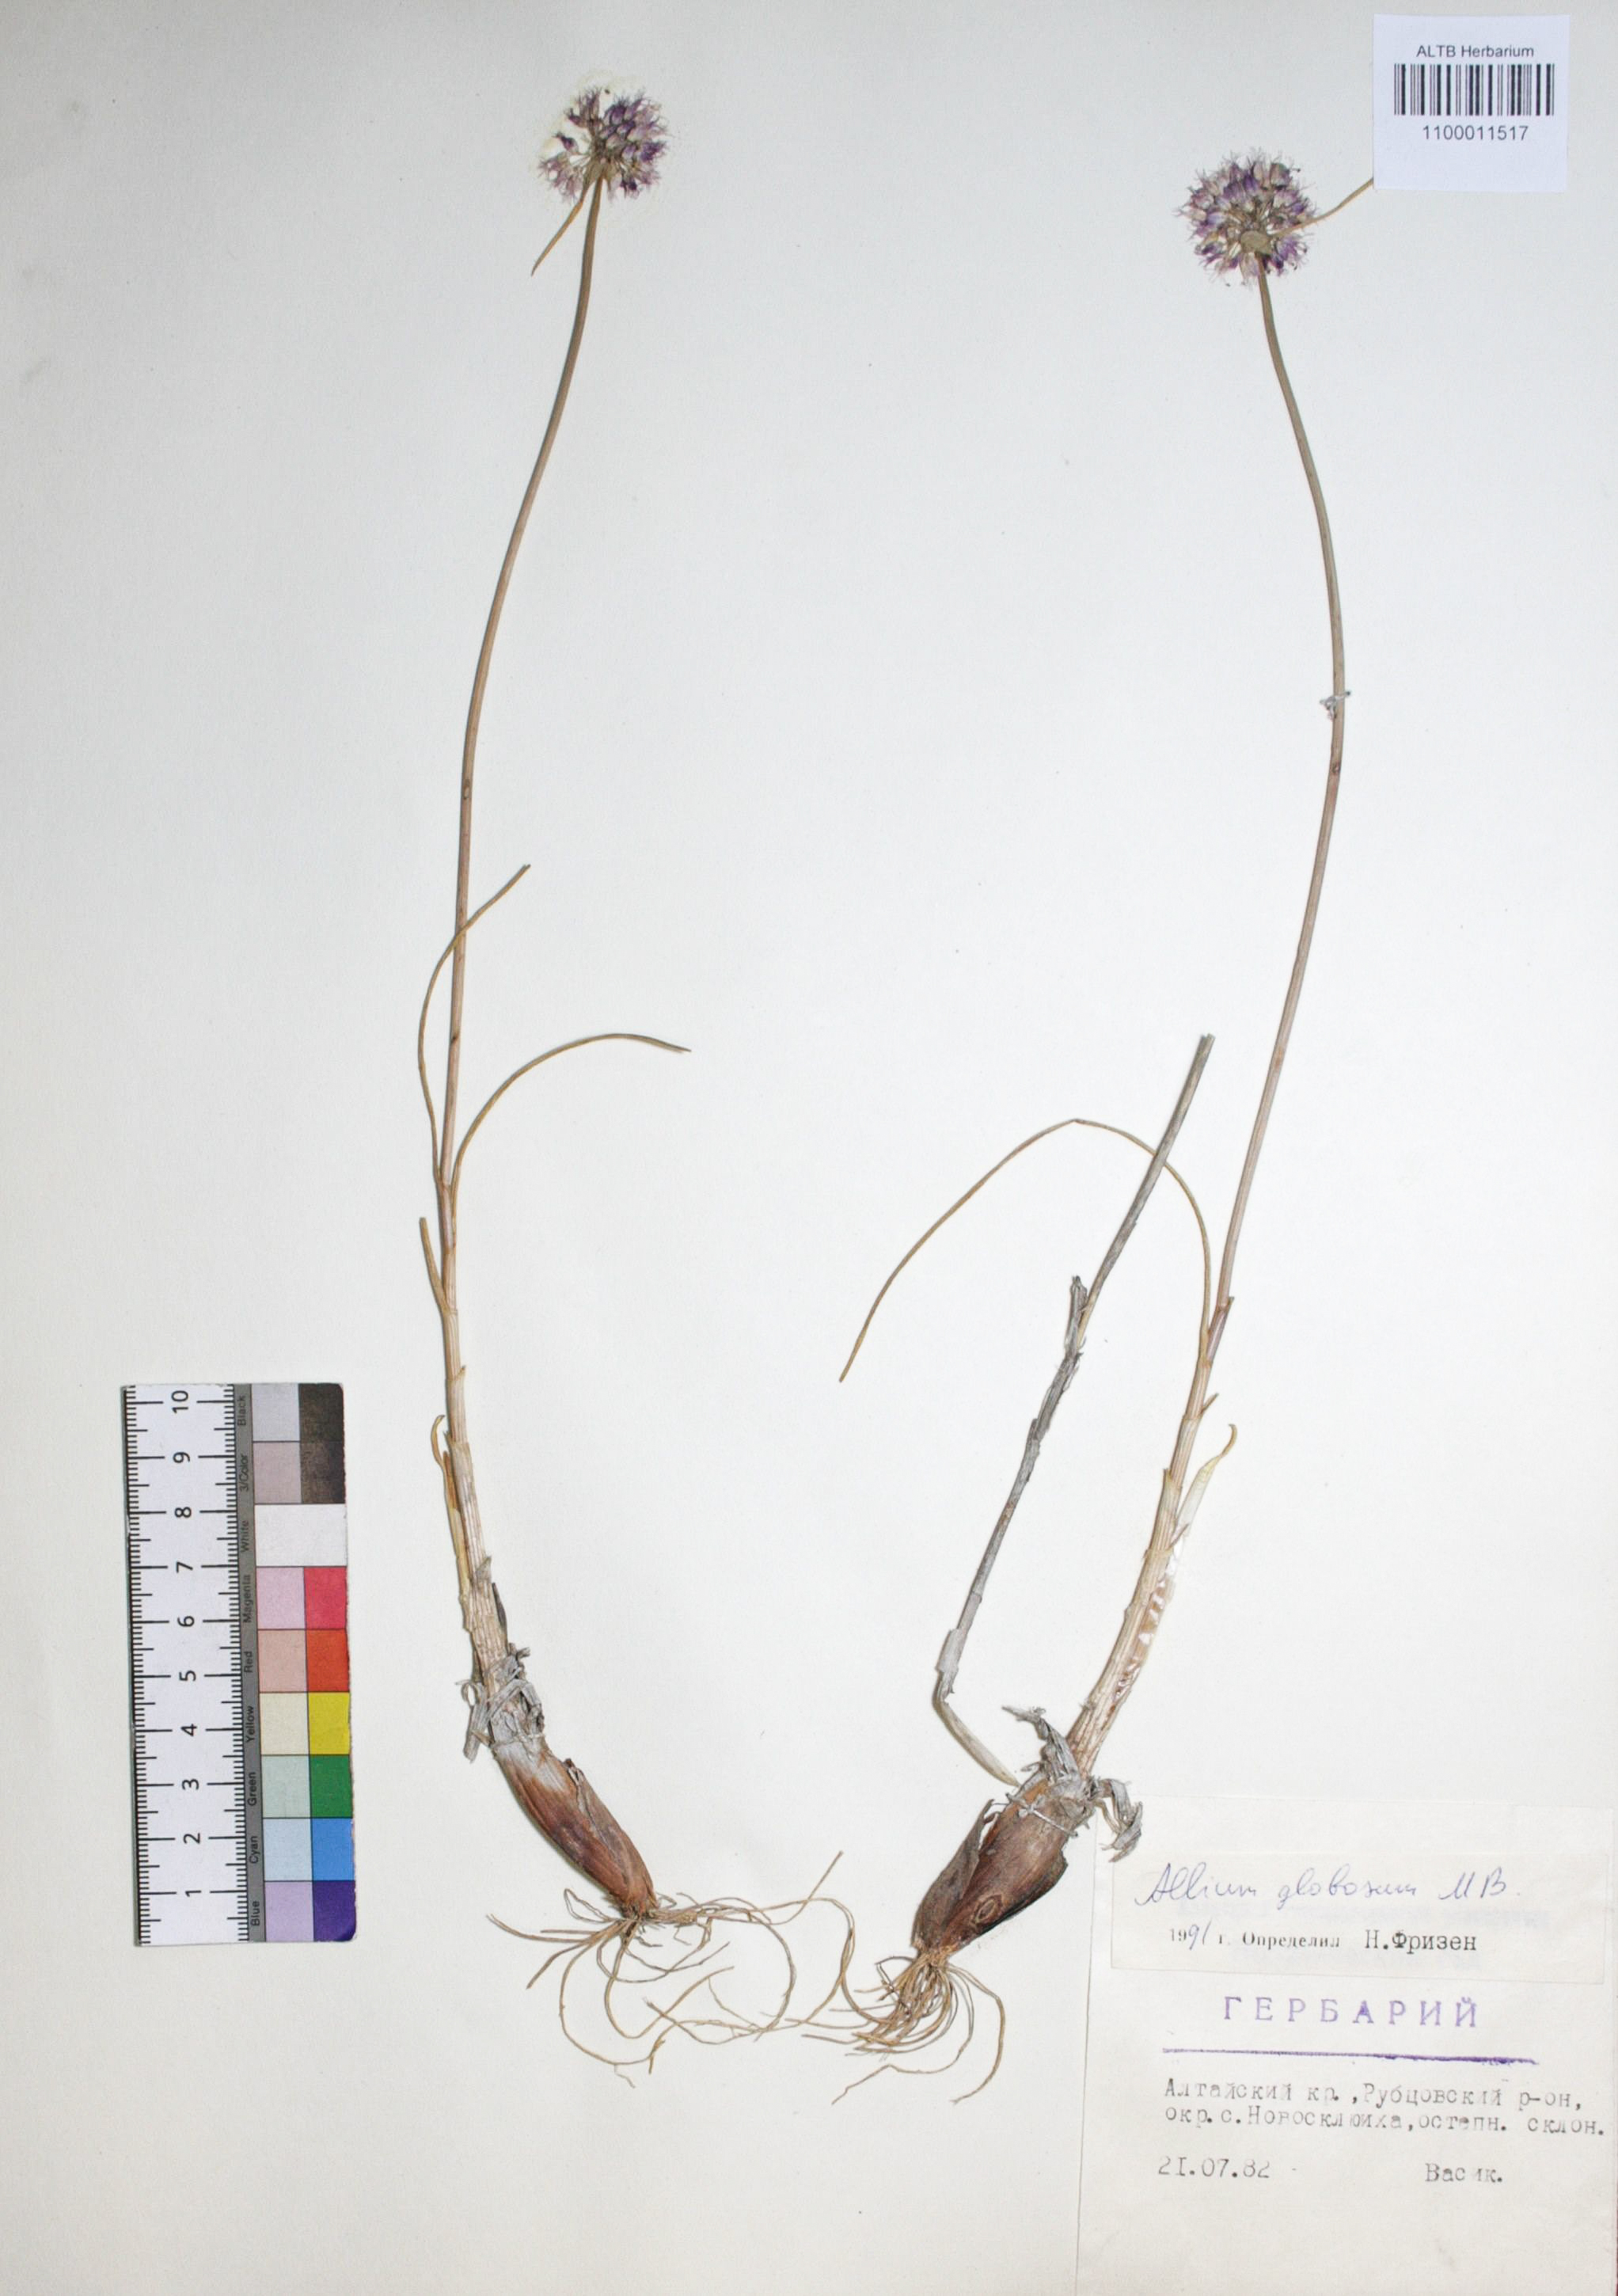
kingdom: Plantae
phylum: Tracheophyta
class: Liliopsida
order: Asparagales
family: Amaryllidaceae
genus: Allium
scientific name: Allium saxatile
